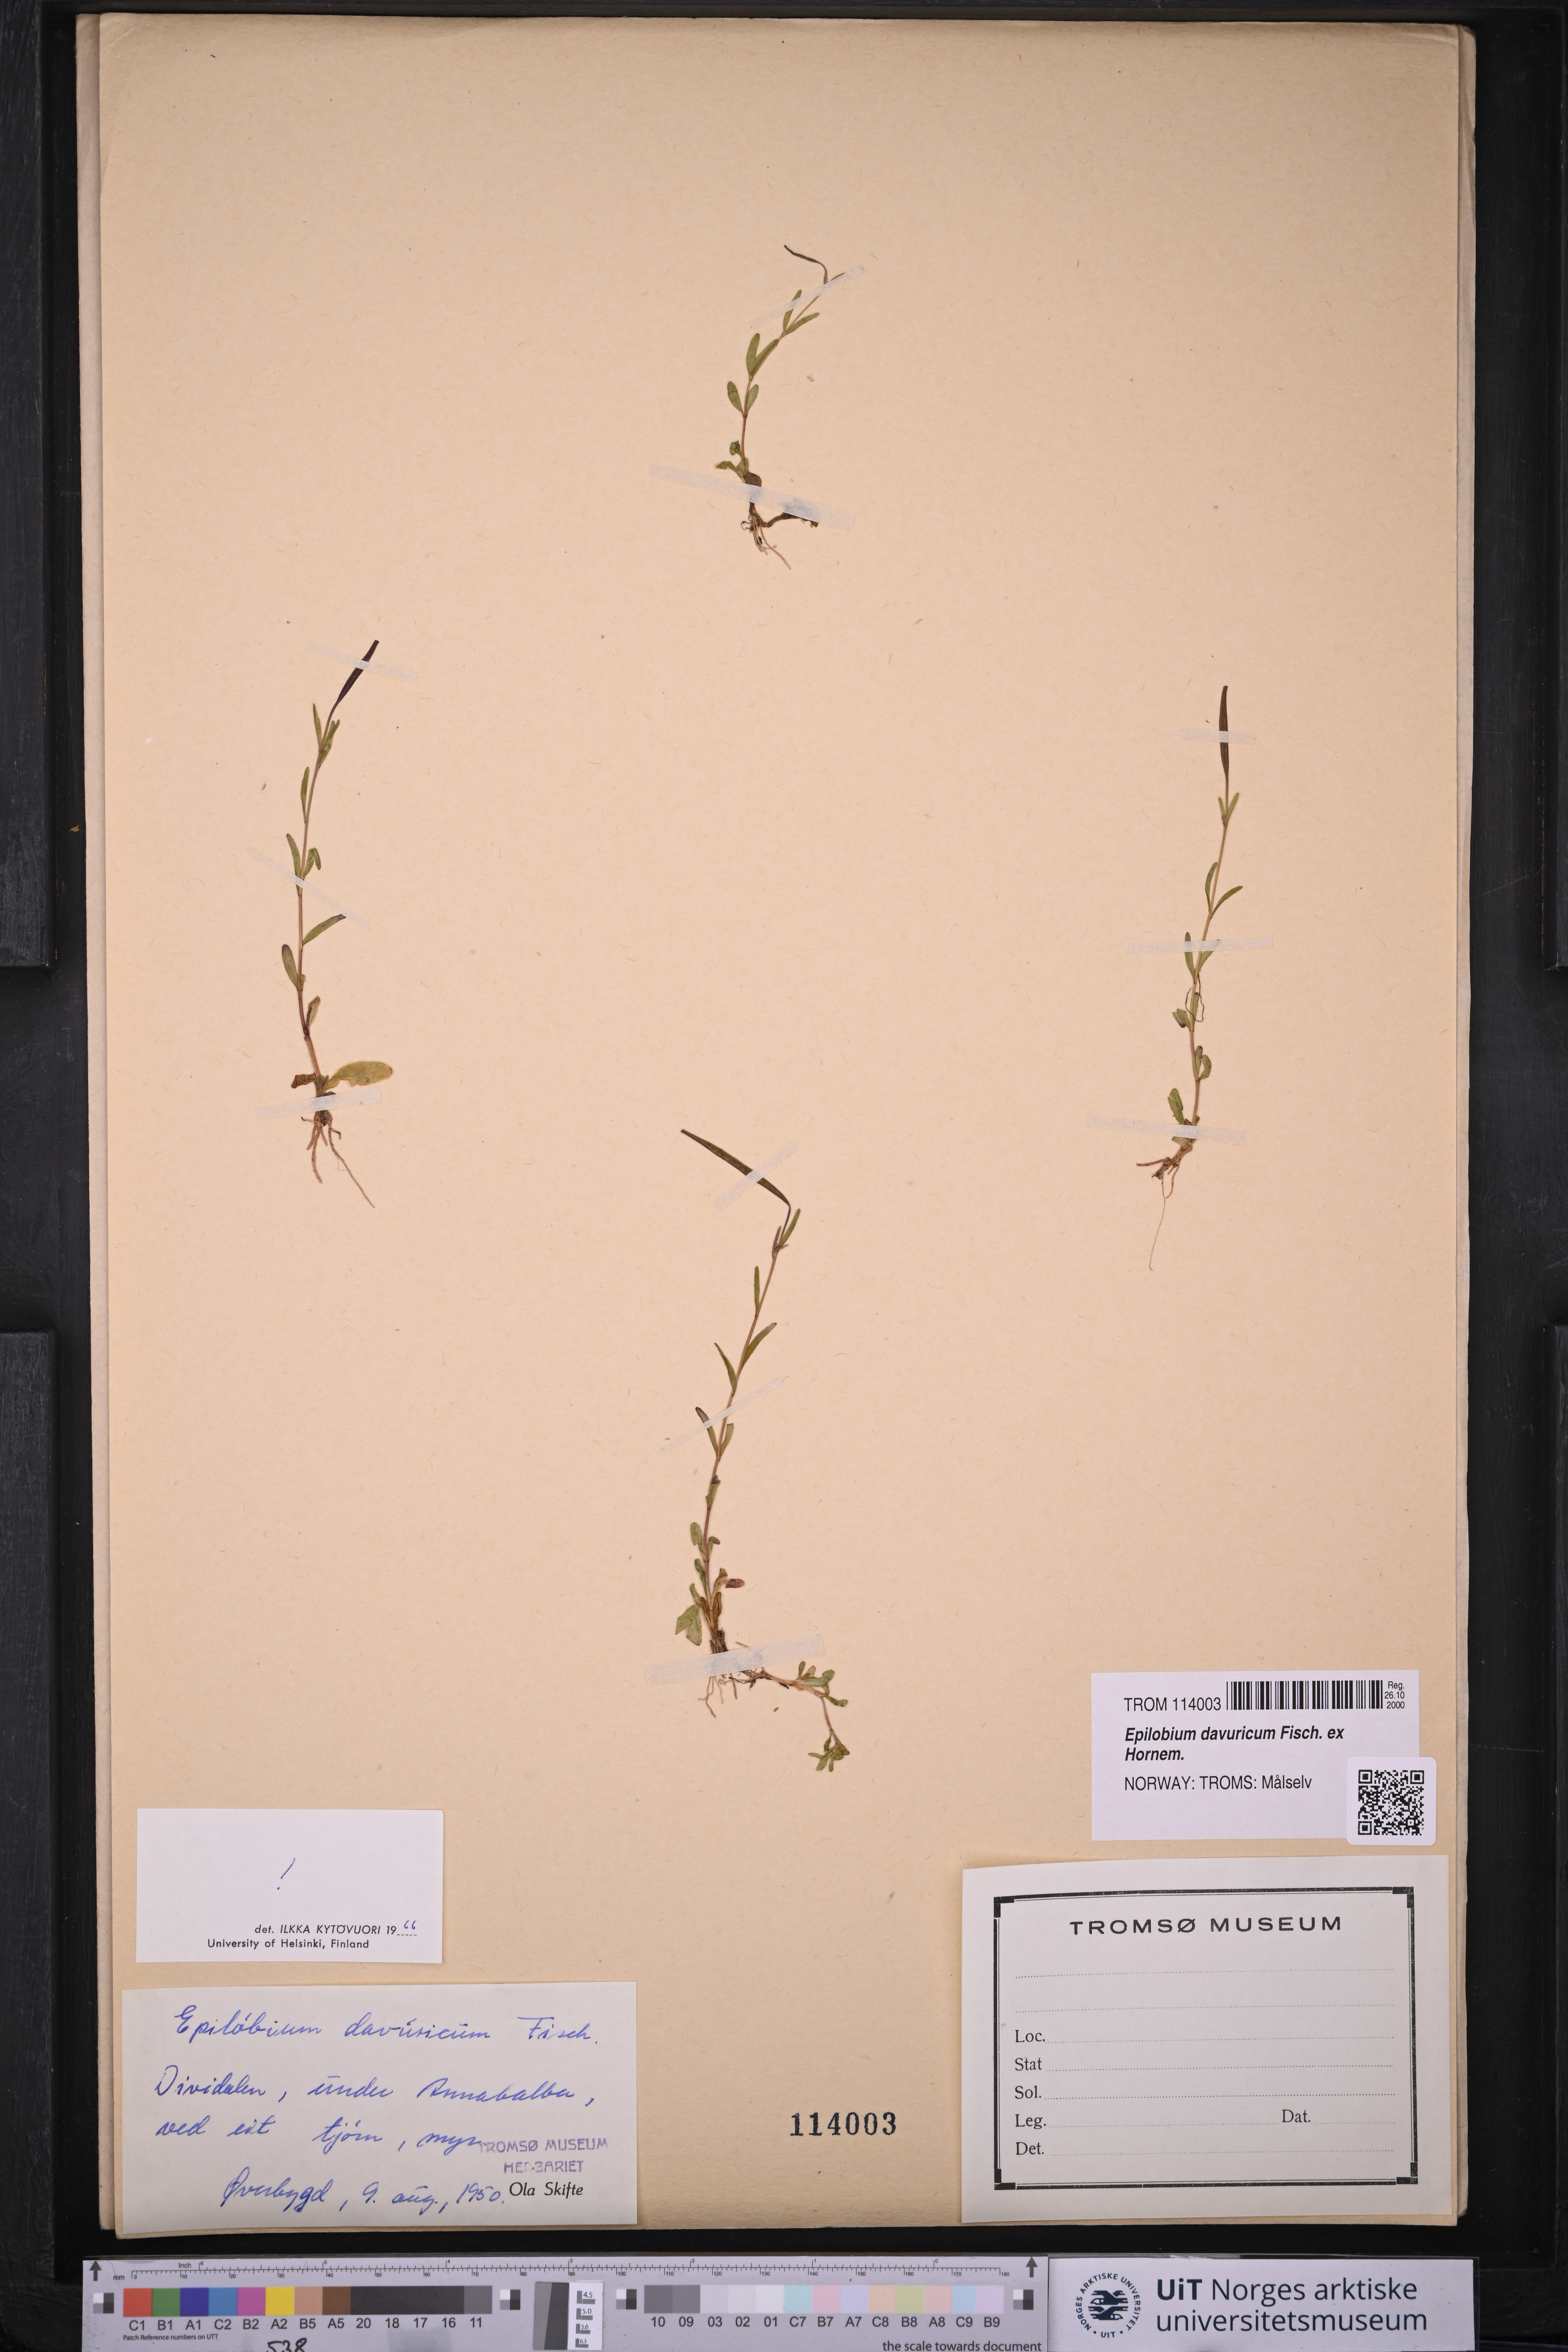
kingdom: Plantae
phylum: Tracheophyta
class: Magnoliopsida
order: Myrtales
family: Onagraceae
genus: Epilobium
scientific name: Epilobium davuricum
